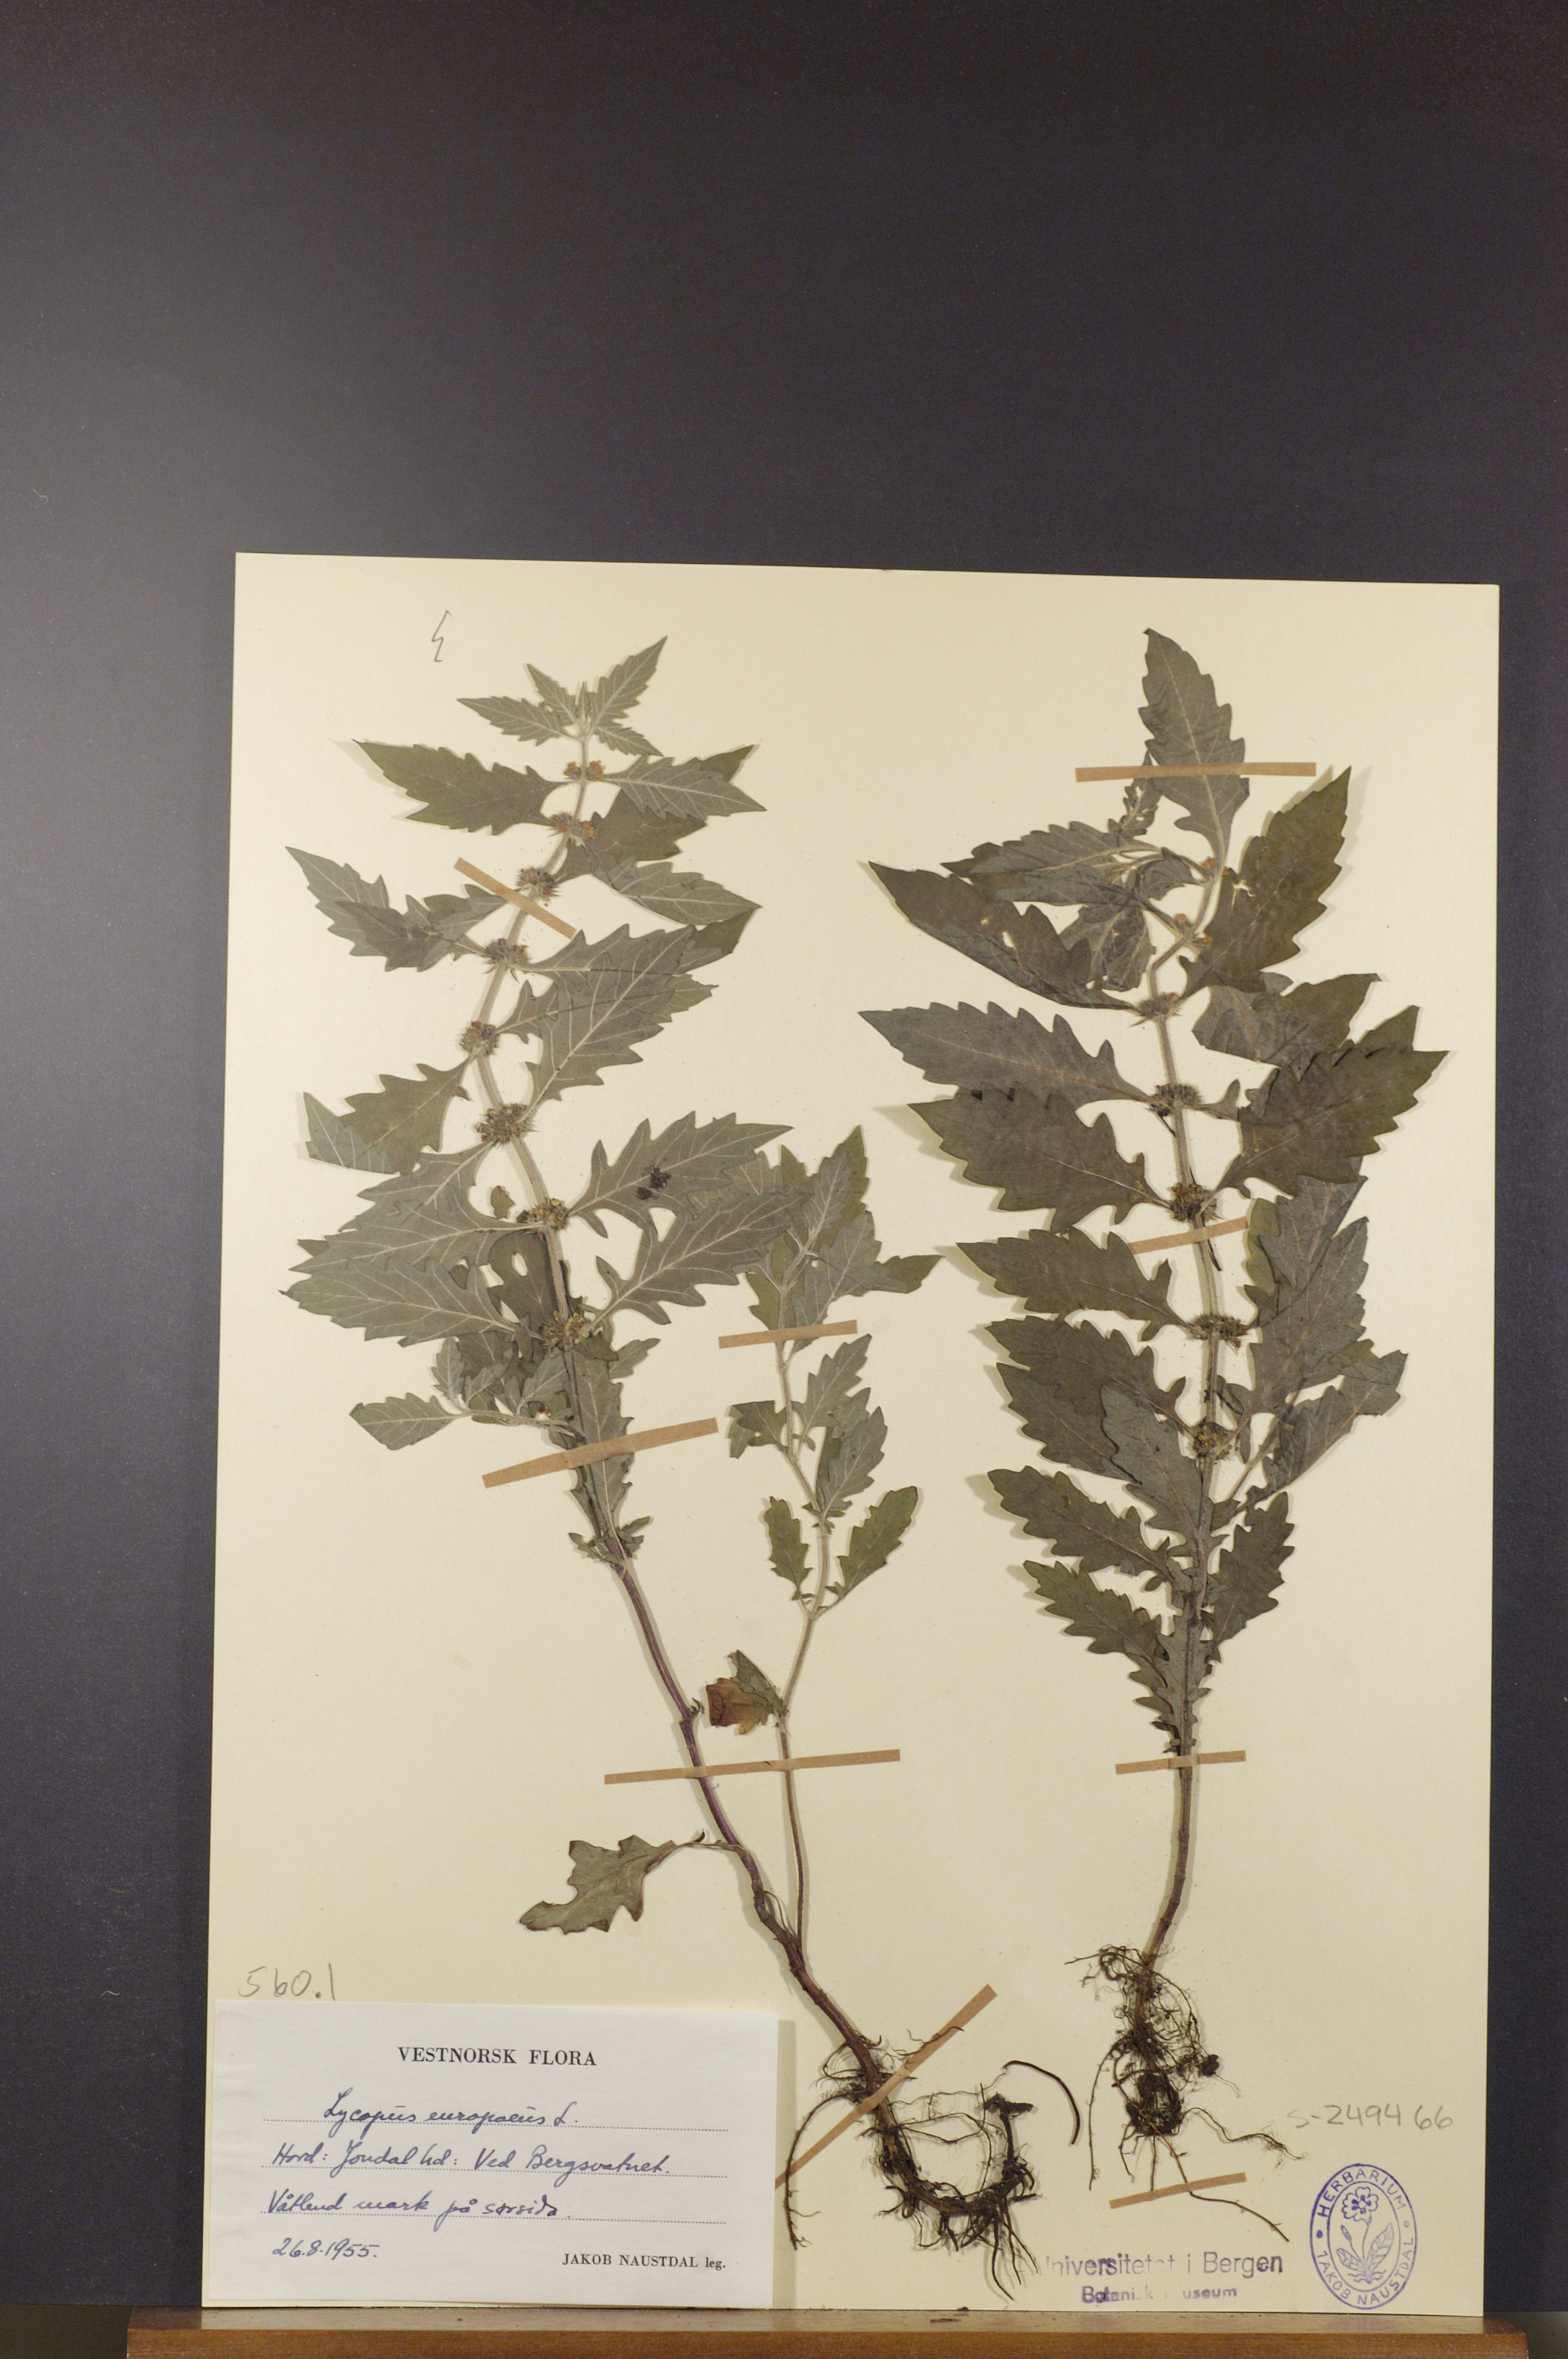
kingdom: Plantae
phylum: Tracheophyta
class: Magnoliopsida
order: Lamiales
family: Lamiaceae
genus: Lycopus
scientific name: Lycopus europaeus
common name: European bugleweed
